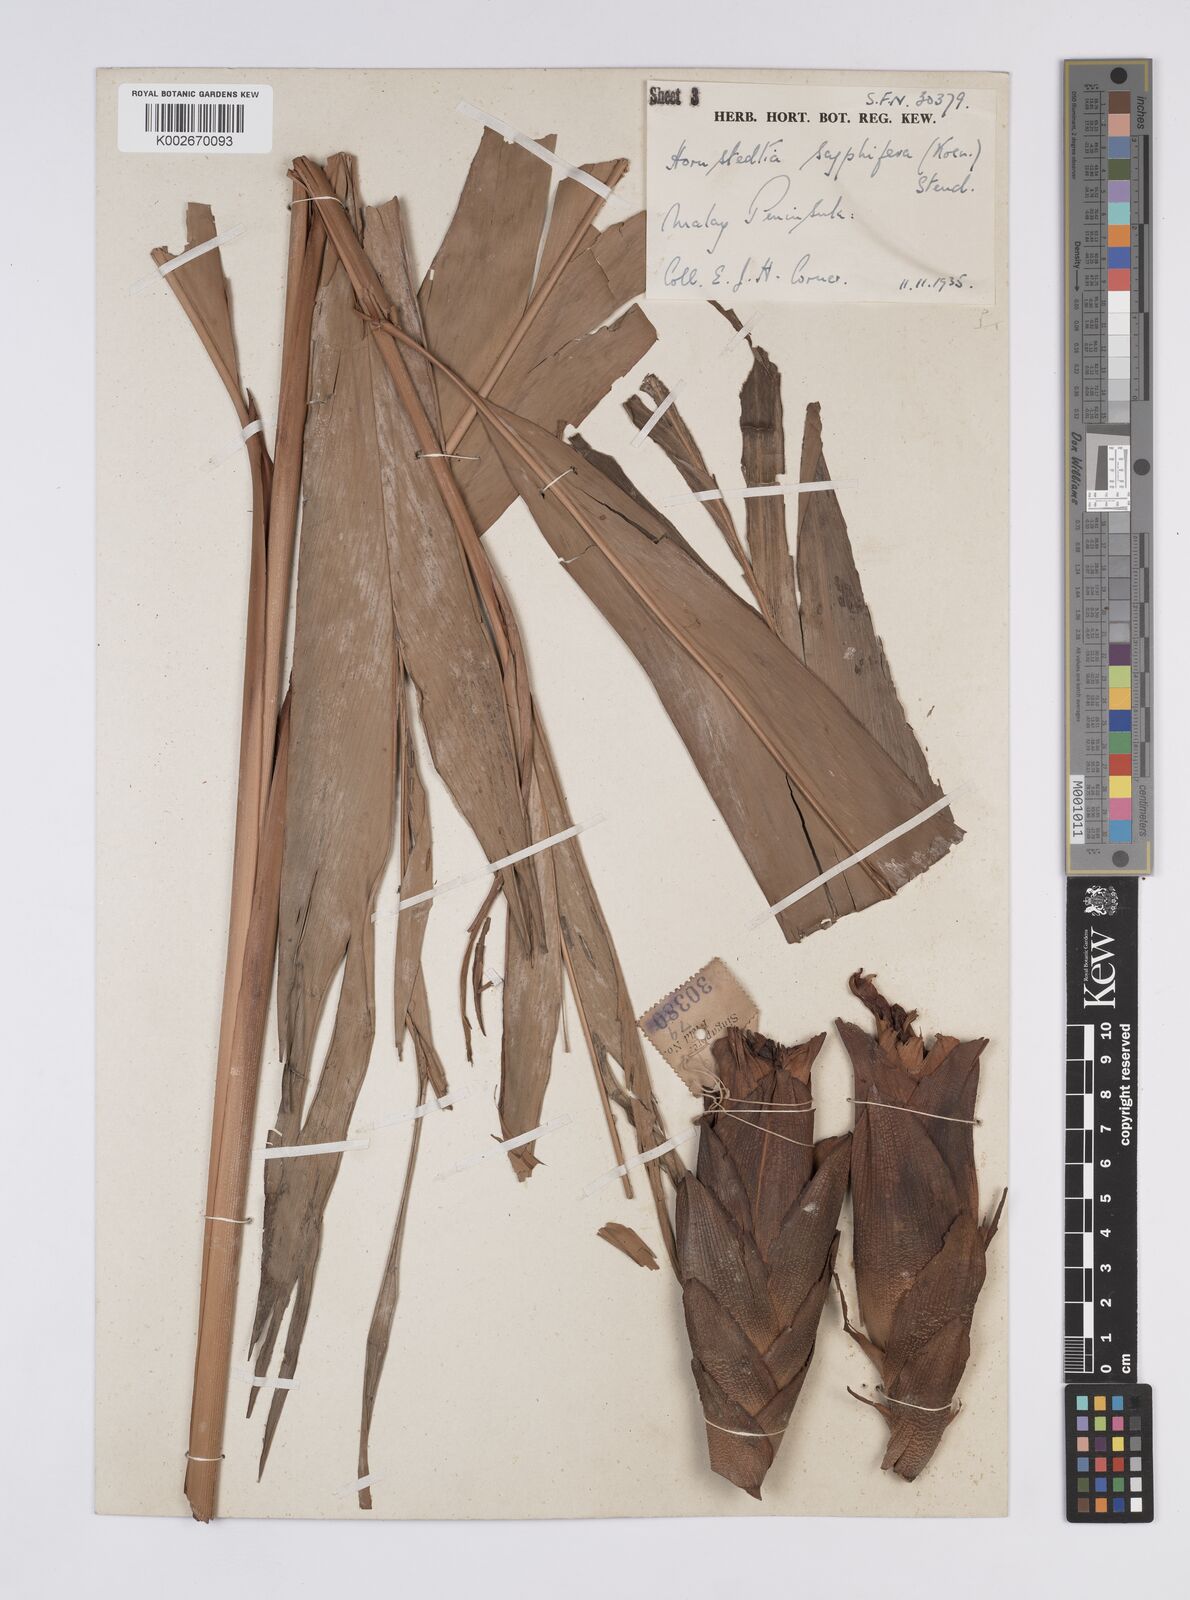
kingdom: Plantae
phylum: Tracheophyta
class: Liliopsida
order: Zingiberales
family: Zingiberaceae
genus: Hornstedtia
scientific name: Hornstedtia scyphifera
